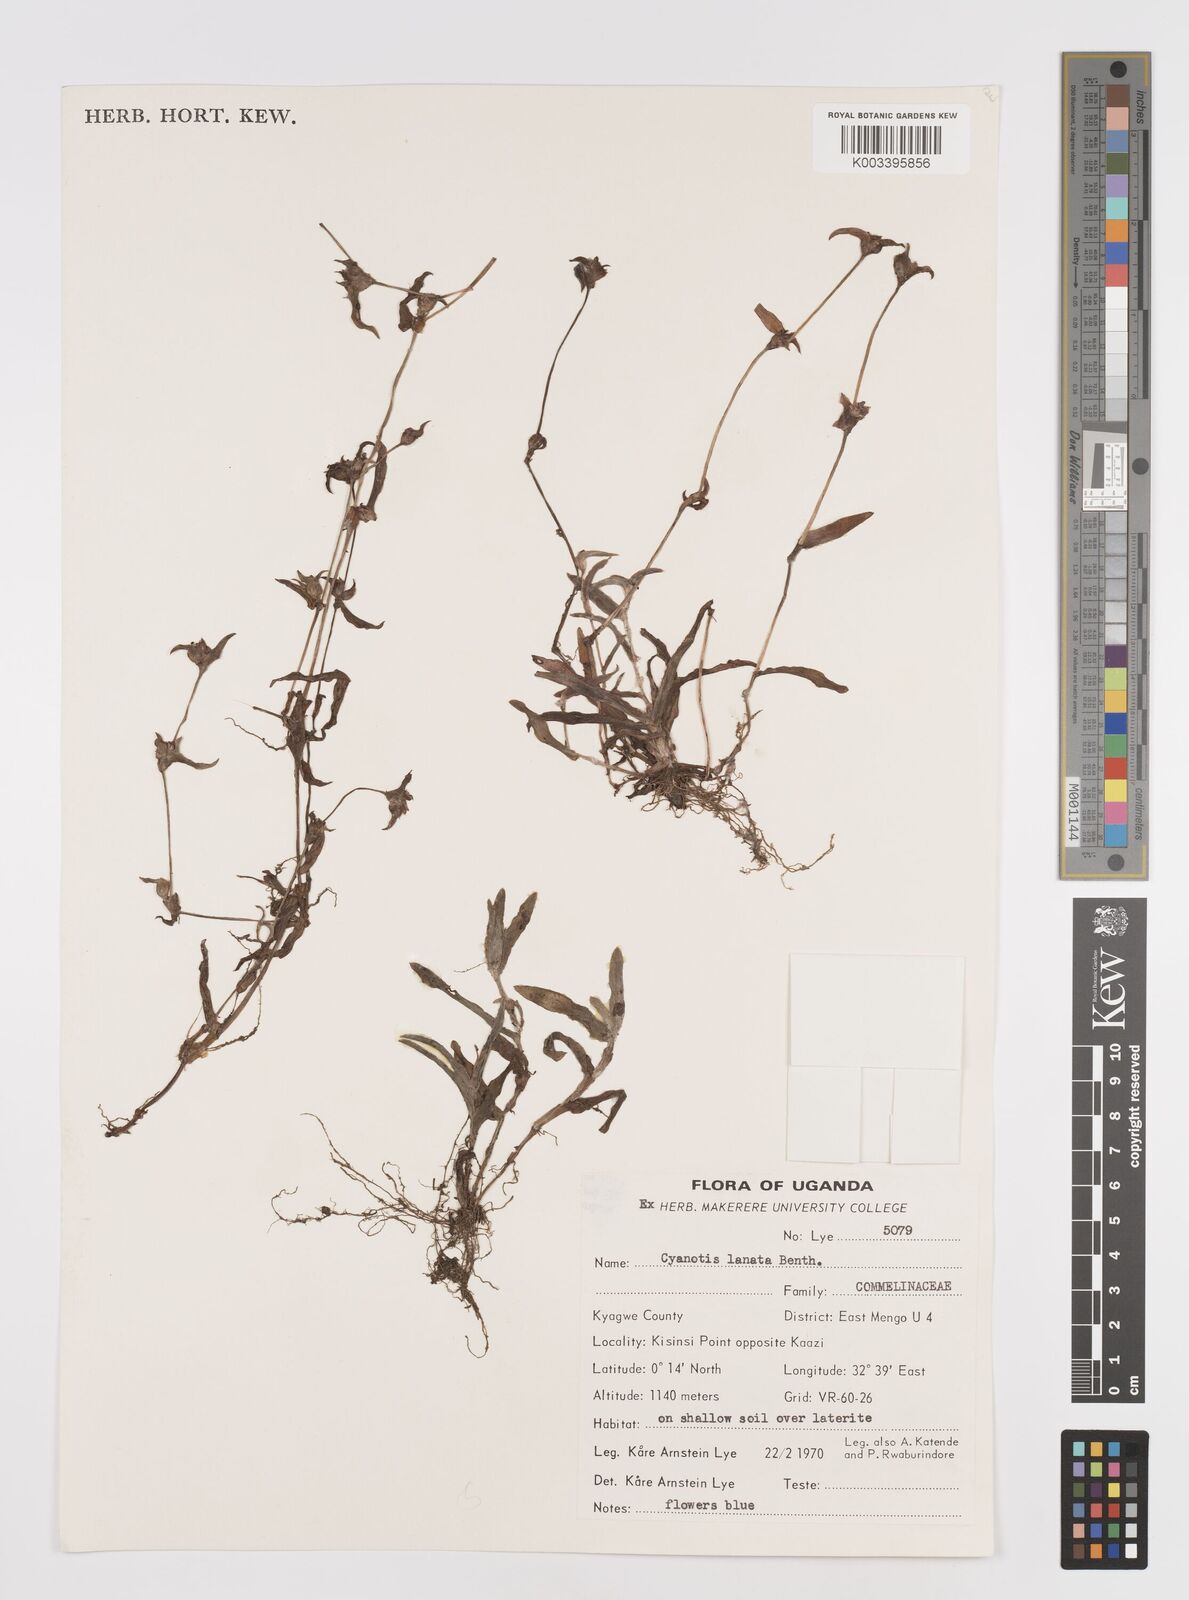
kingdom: Plantae
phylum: Tracheophyta
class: Liliopsida
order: Commelinales
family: Commelinaceae
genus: Cyanotis
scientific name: Cyanotis lanata
